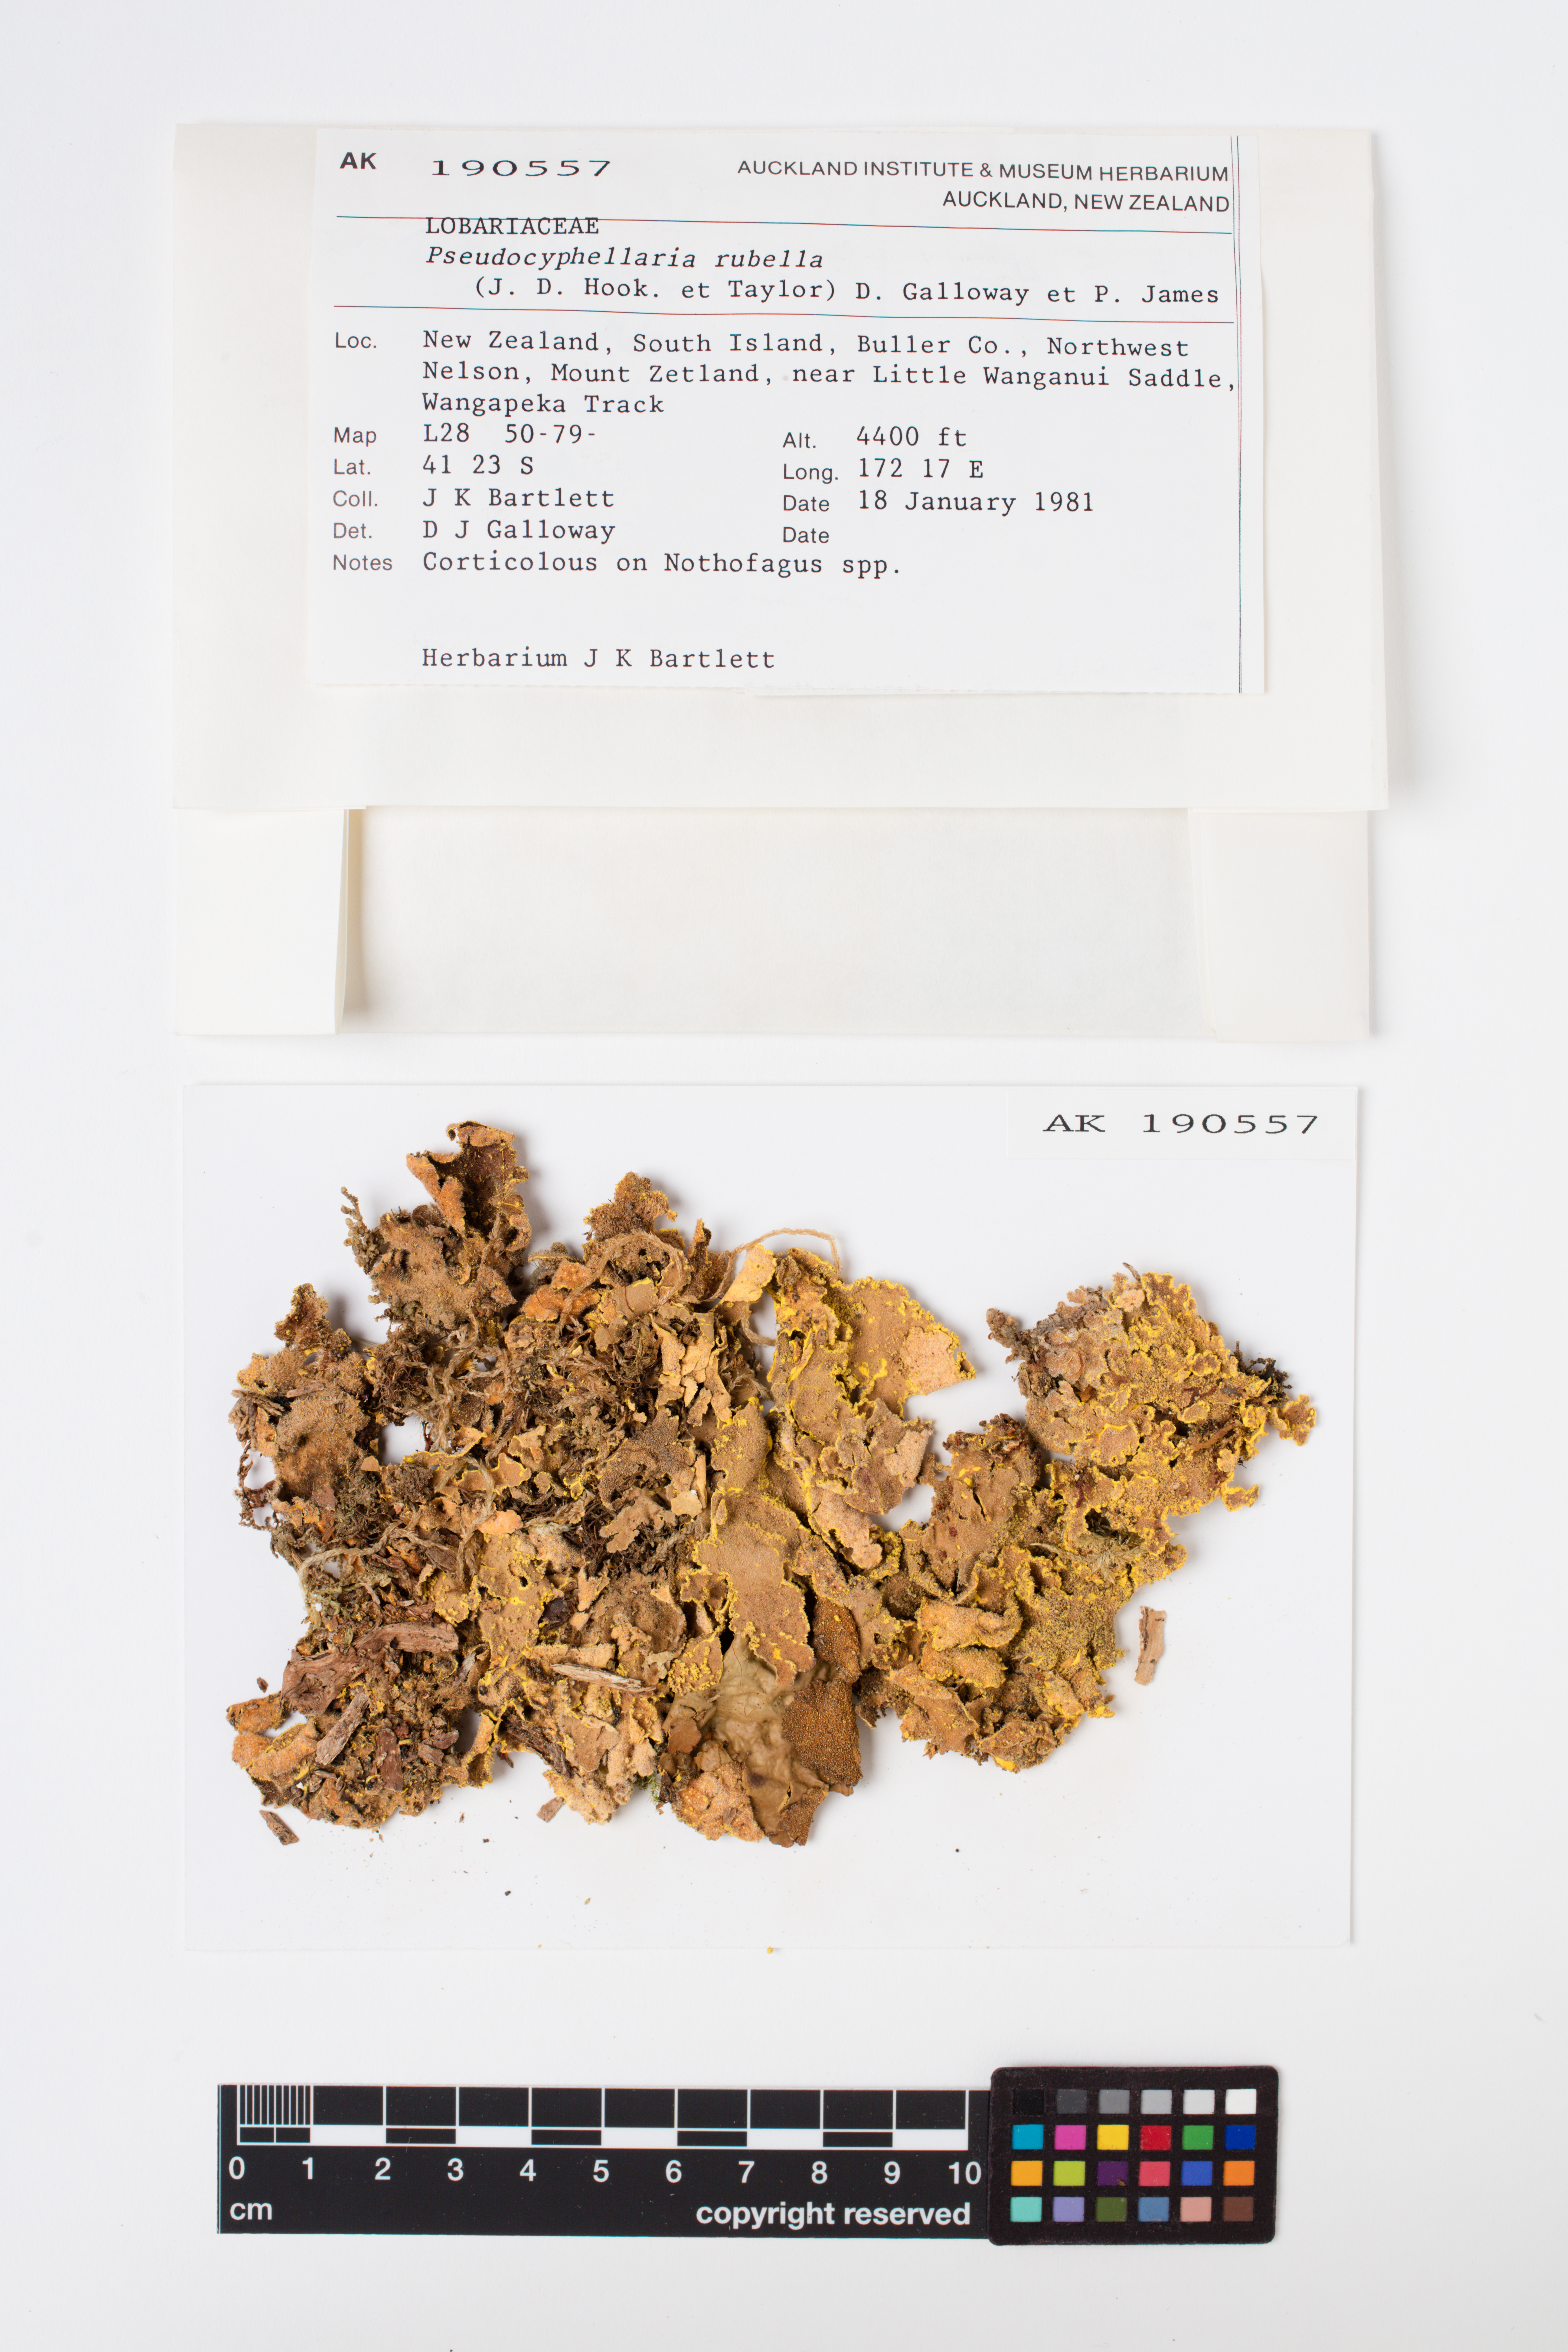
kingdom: Fungi
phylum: Ascomycota
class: Lecanoromycetes
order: Peltigerales
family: Lobariaceae
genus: Pseudocyphellaria
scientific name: Pseudocyphellaria rubella
